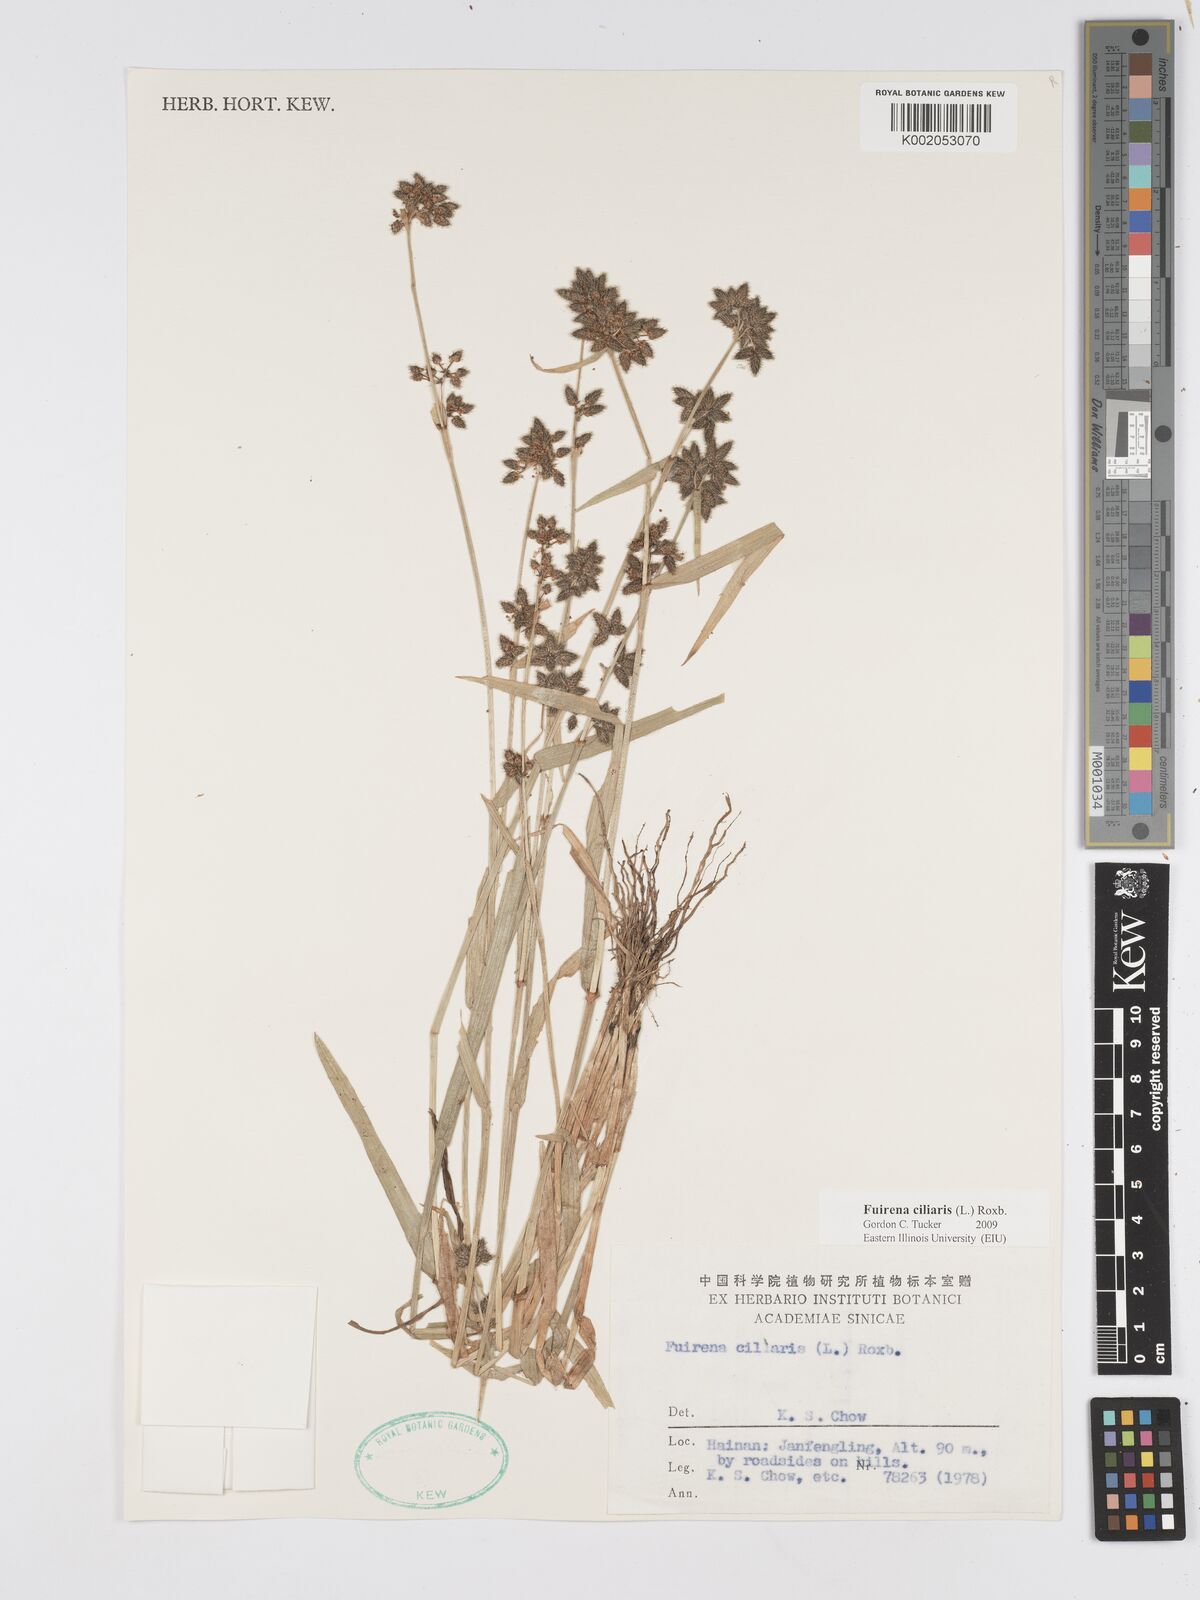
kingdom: Plantae
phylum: Tracheophyta
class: Liliopsida
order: Poales
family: Cyperaceae
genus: Fuirena
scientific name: Fuirena ciliaris
